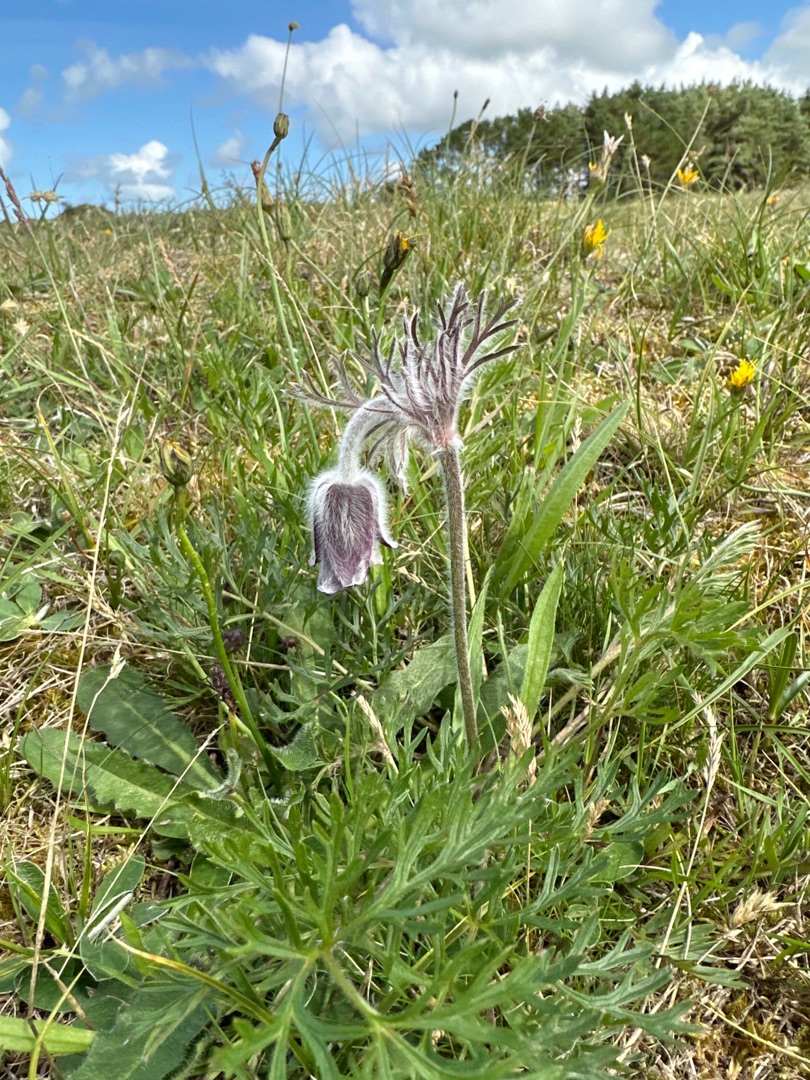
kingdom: Plantae
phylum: Tracheophyta
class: Magnoliopsida
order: Ranunculales
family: Ranunculaceae
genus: Pulsatilla
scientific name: Pulsatilla pratensis
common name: Nikkende kobjælde
